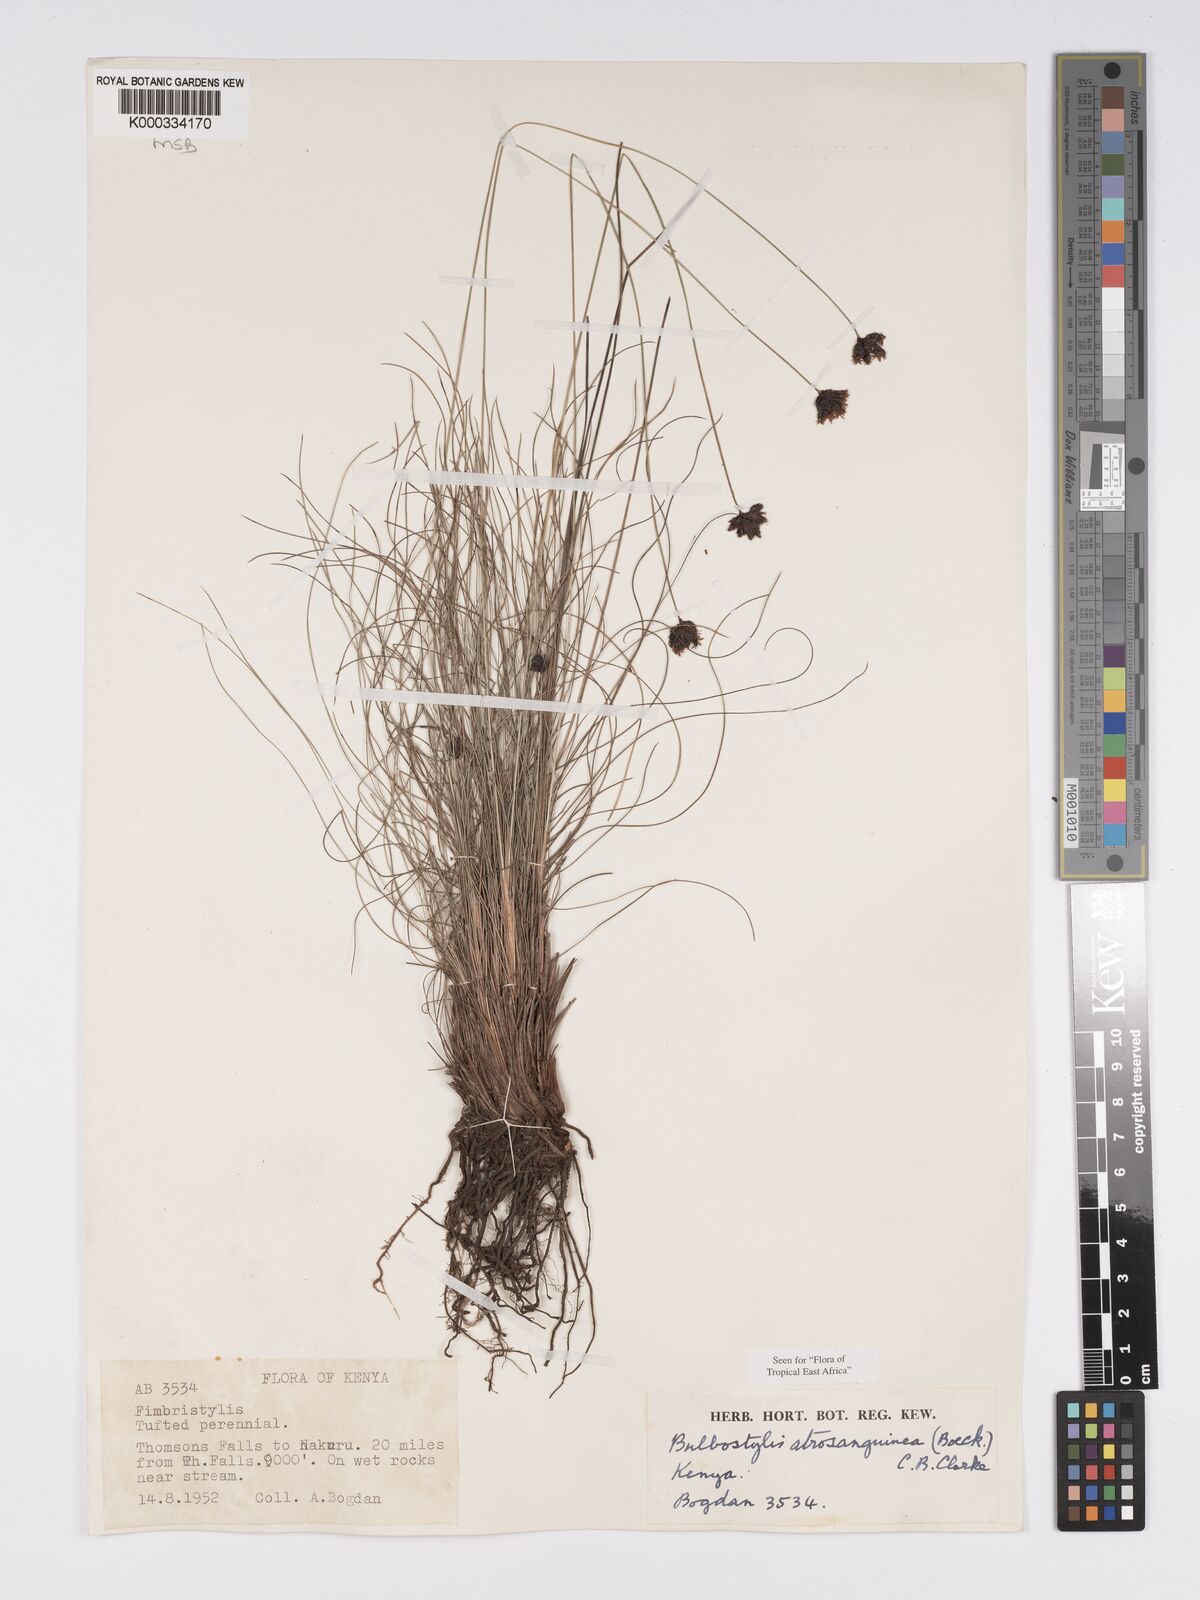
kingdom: Plantae
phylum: Tracheophyta
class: Liliopsida
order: Poales
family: Cyperaceae
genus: Bulbostylis
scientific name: Bulbostylis atrosanguinea
